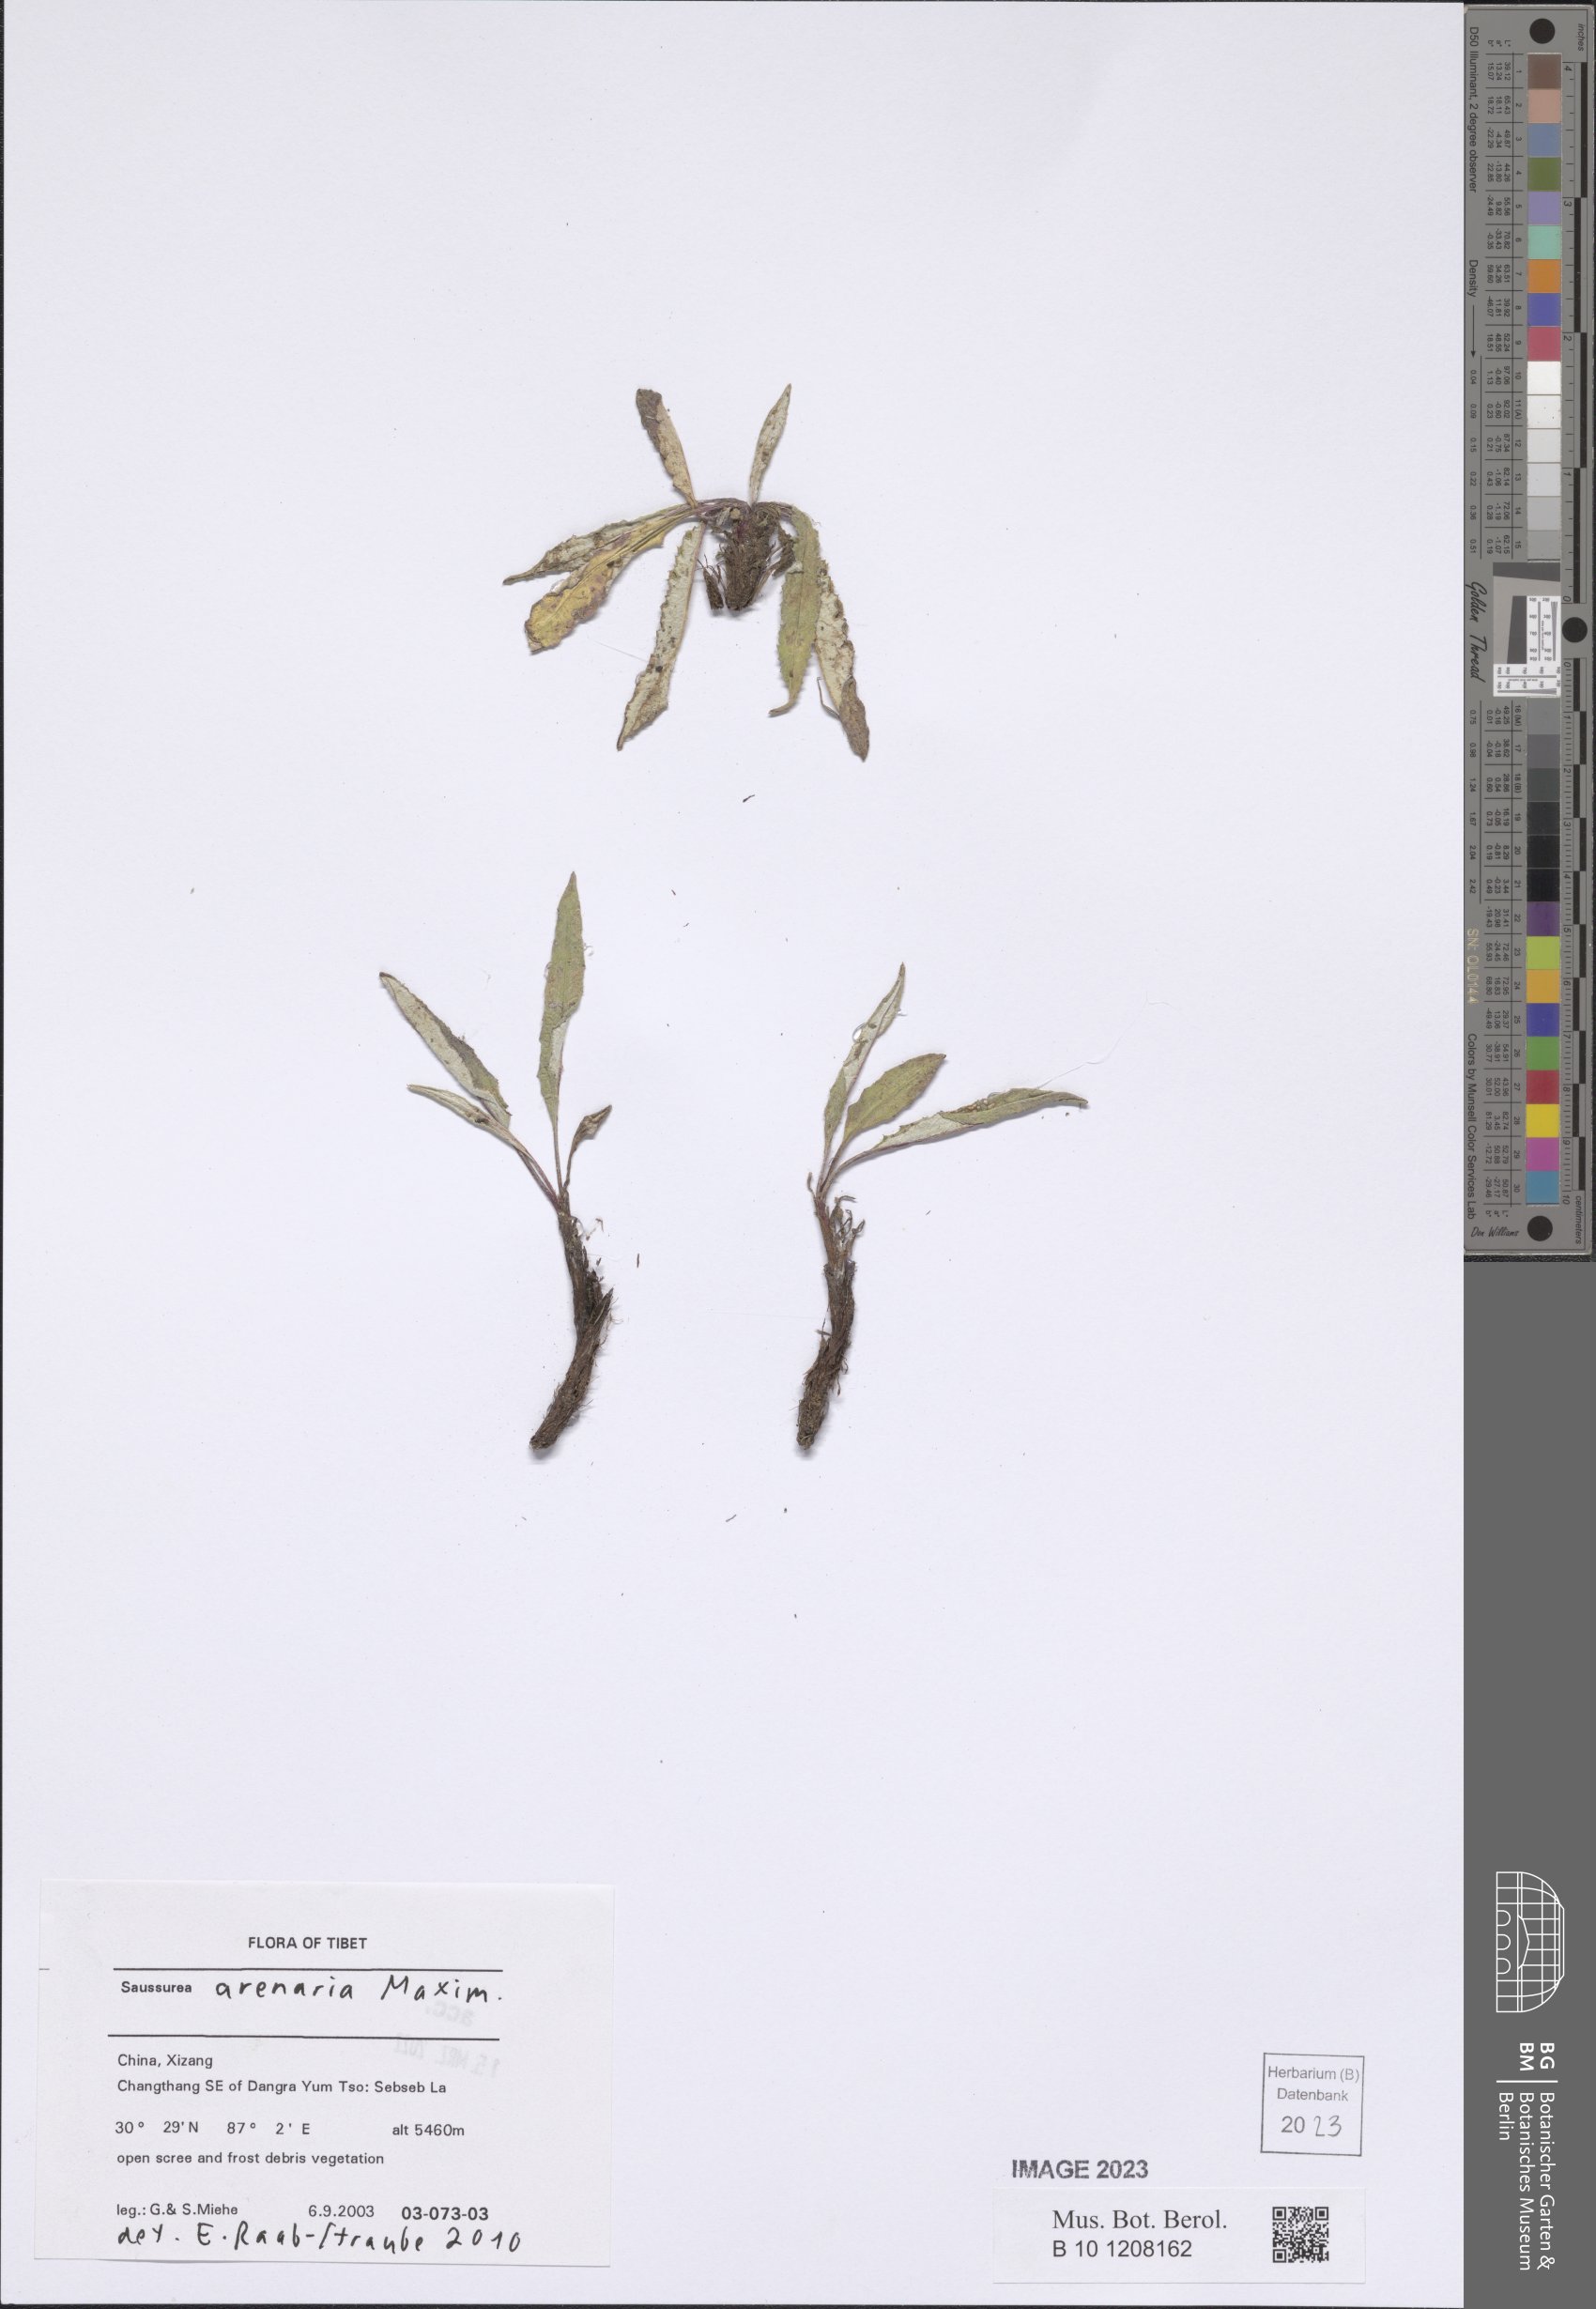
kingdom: Plantae
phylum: Tracheophyta
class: Magnoliopsida
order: Asterales
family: Asteraceae
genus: Saussurea
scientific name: Saussurea arenaria
